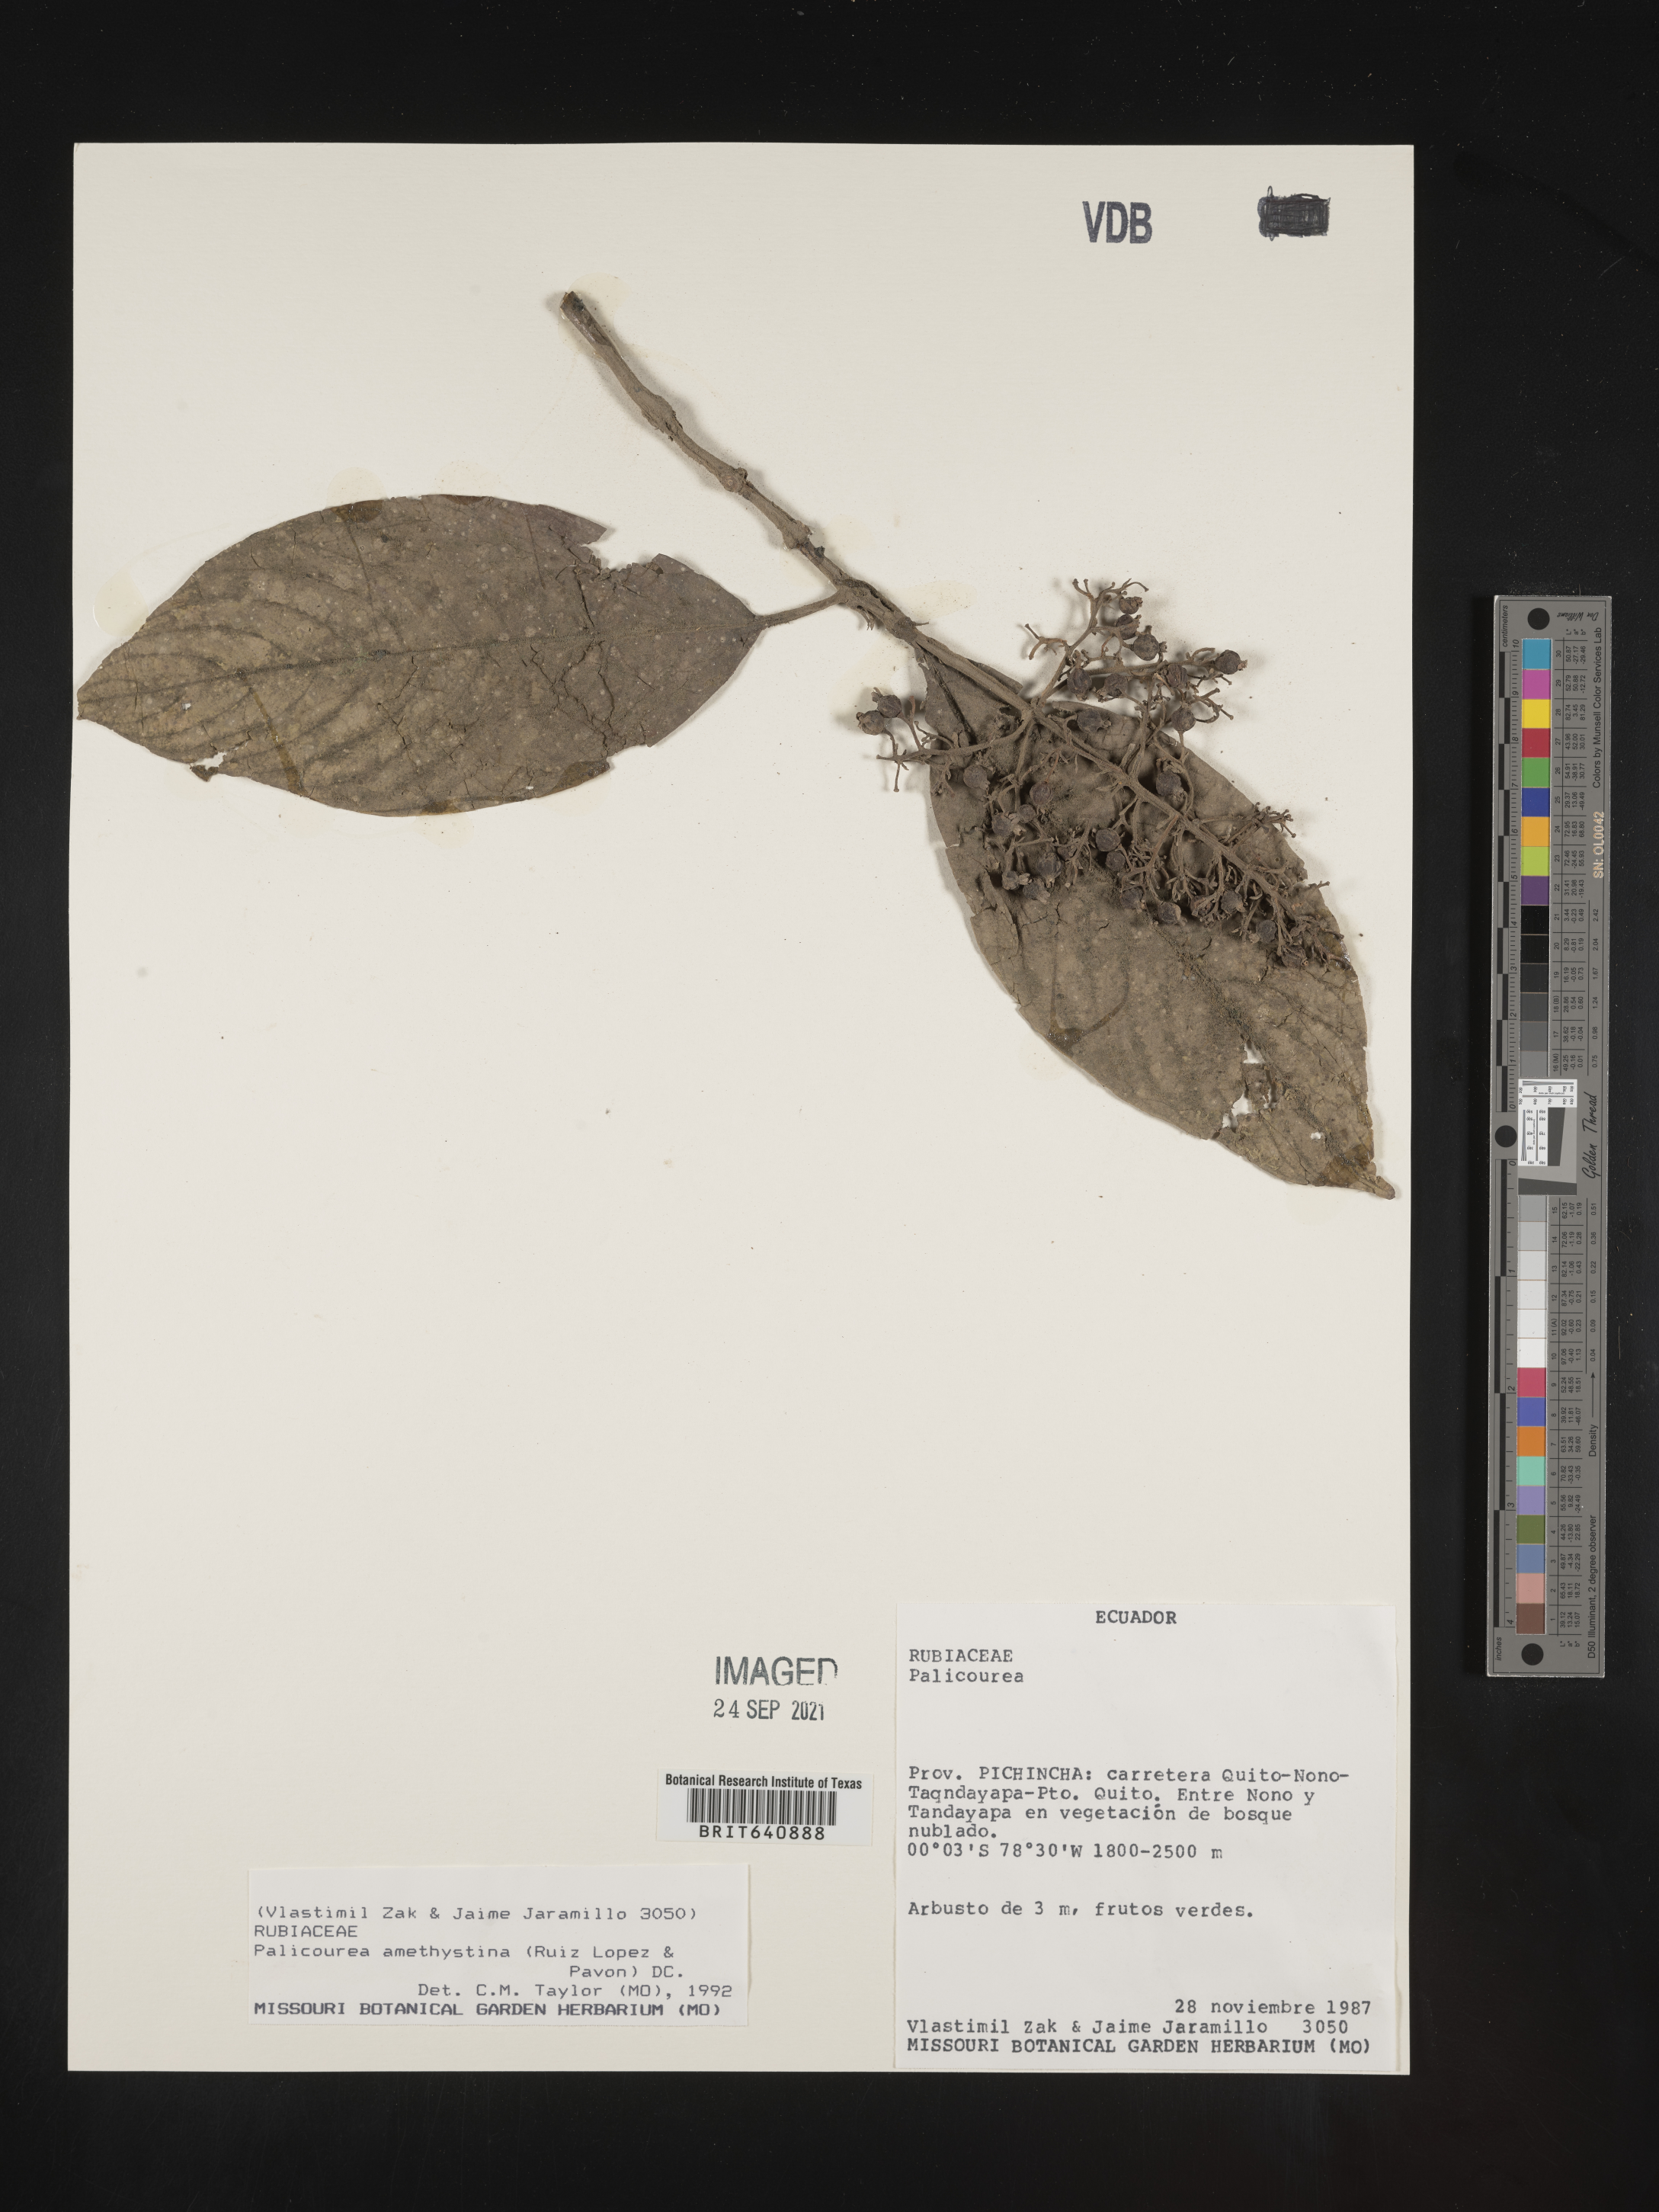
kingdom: Plantae
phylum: Tracheophyta
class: Magnoliopsida
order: Gentianales
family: Rubiaceae
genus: Palicourea
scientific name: Palicourea
